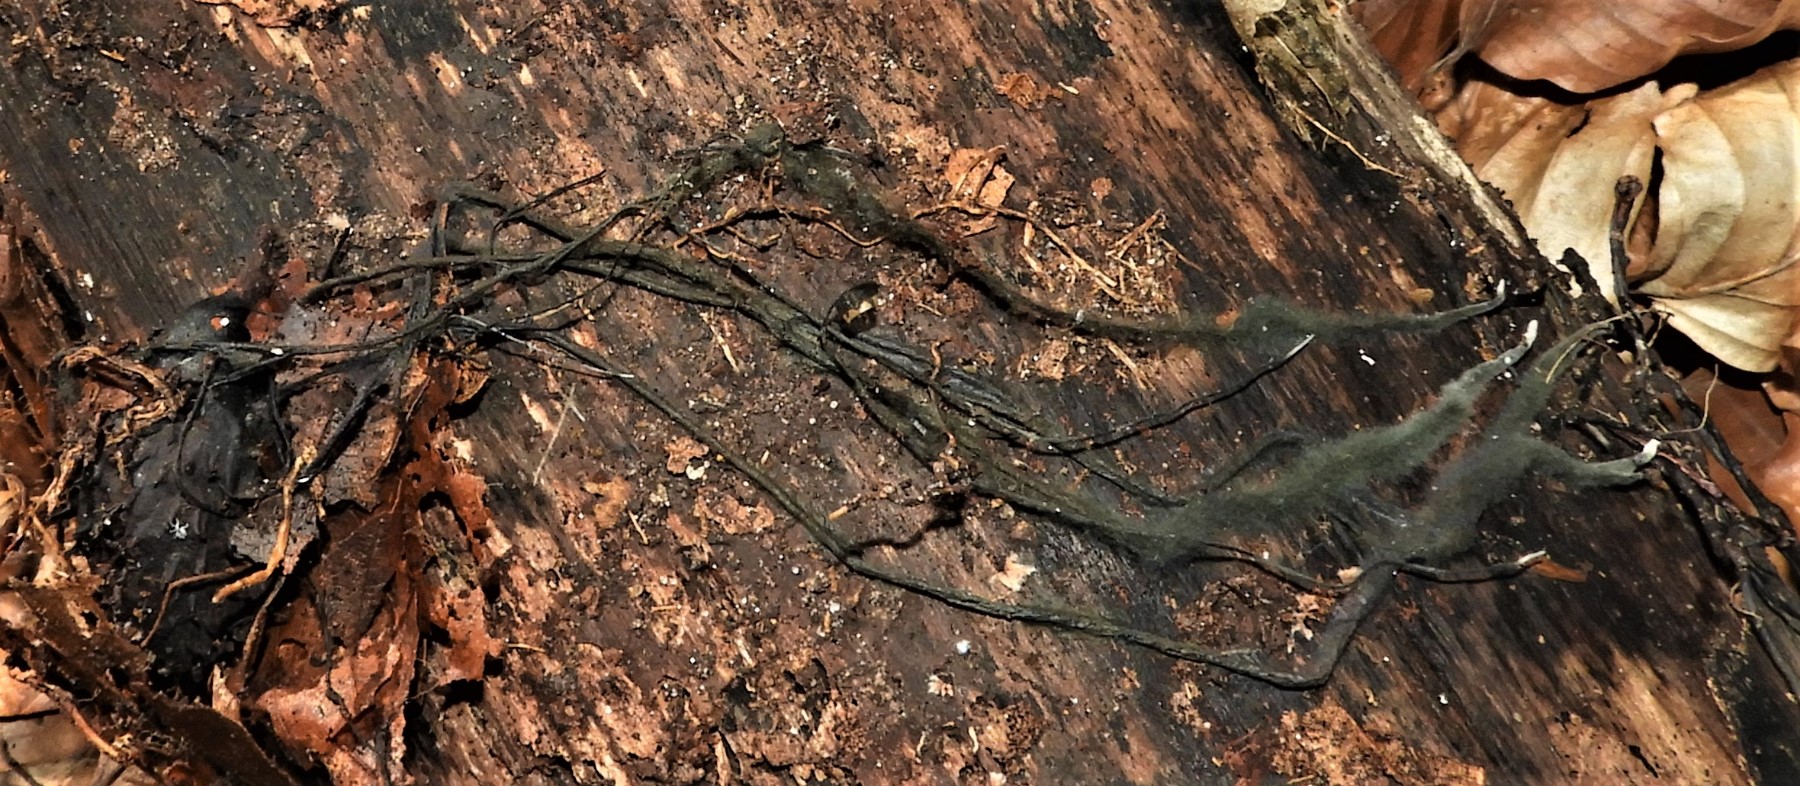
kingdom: Fungi
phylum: Ascomycota
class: Sordariomycetes
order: Xylariales
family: Xylariaceae
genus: Xylaria
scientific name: Xylaria carpophila
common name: bogskål-stødsvamp
